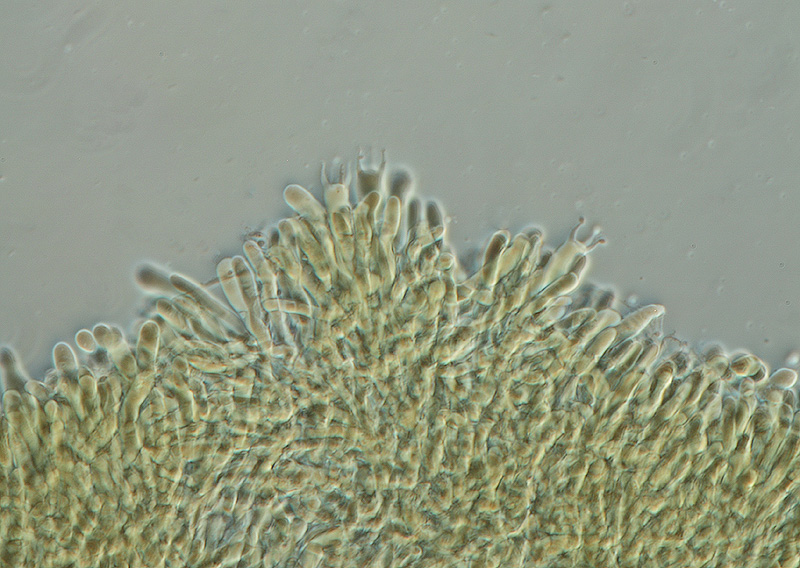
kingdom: Fungi
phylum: Basidiomycota
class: Agaricomycetes
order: Agaricales
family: Physalacriaceae
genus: Cylindrobasidium
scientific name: Cylindrobasidium evolvens
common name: sprækkehinde
